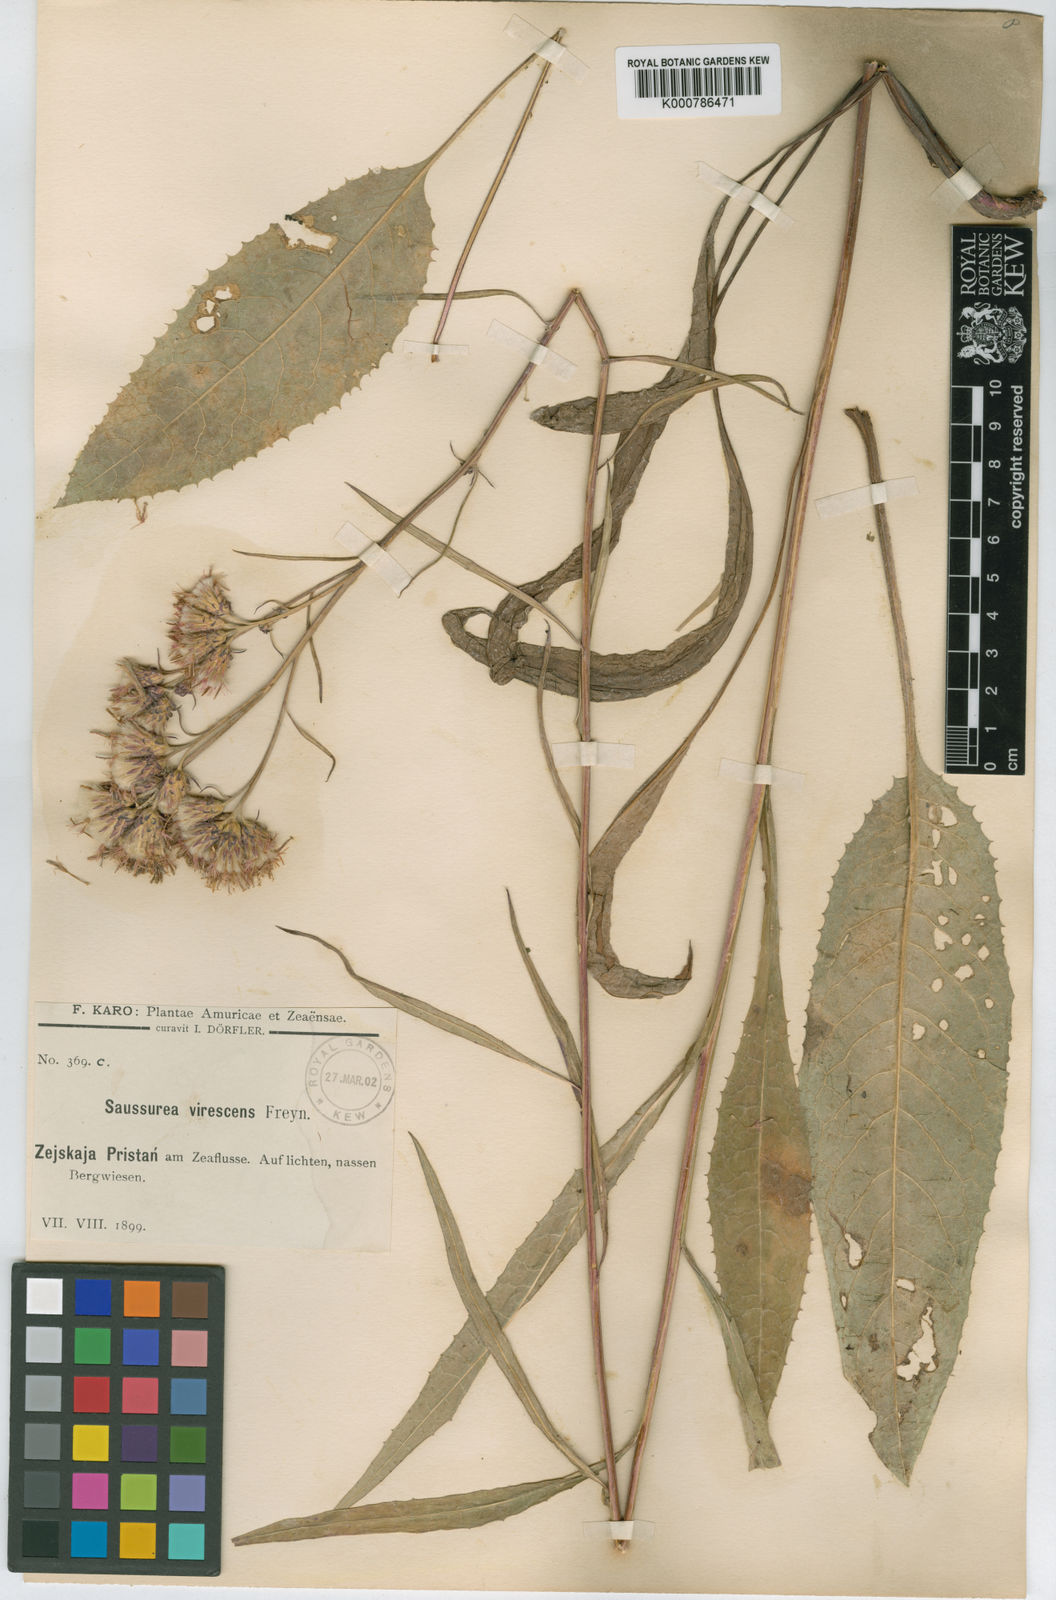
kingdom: Plantae
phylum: Tracheophyta
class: Magnoliopsida
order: Asterales
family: Asteraceae
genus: Saussurea
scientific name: Saussurea
